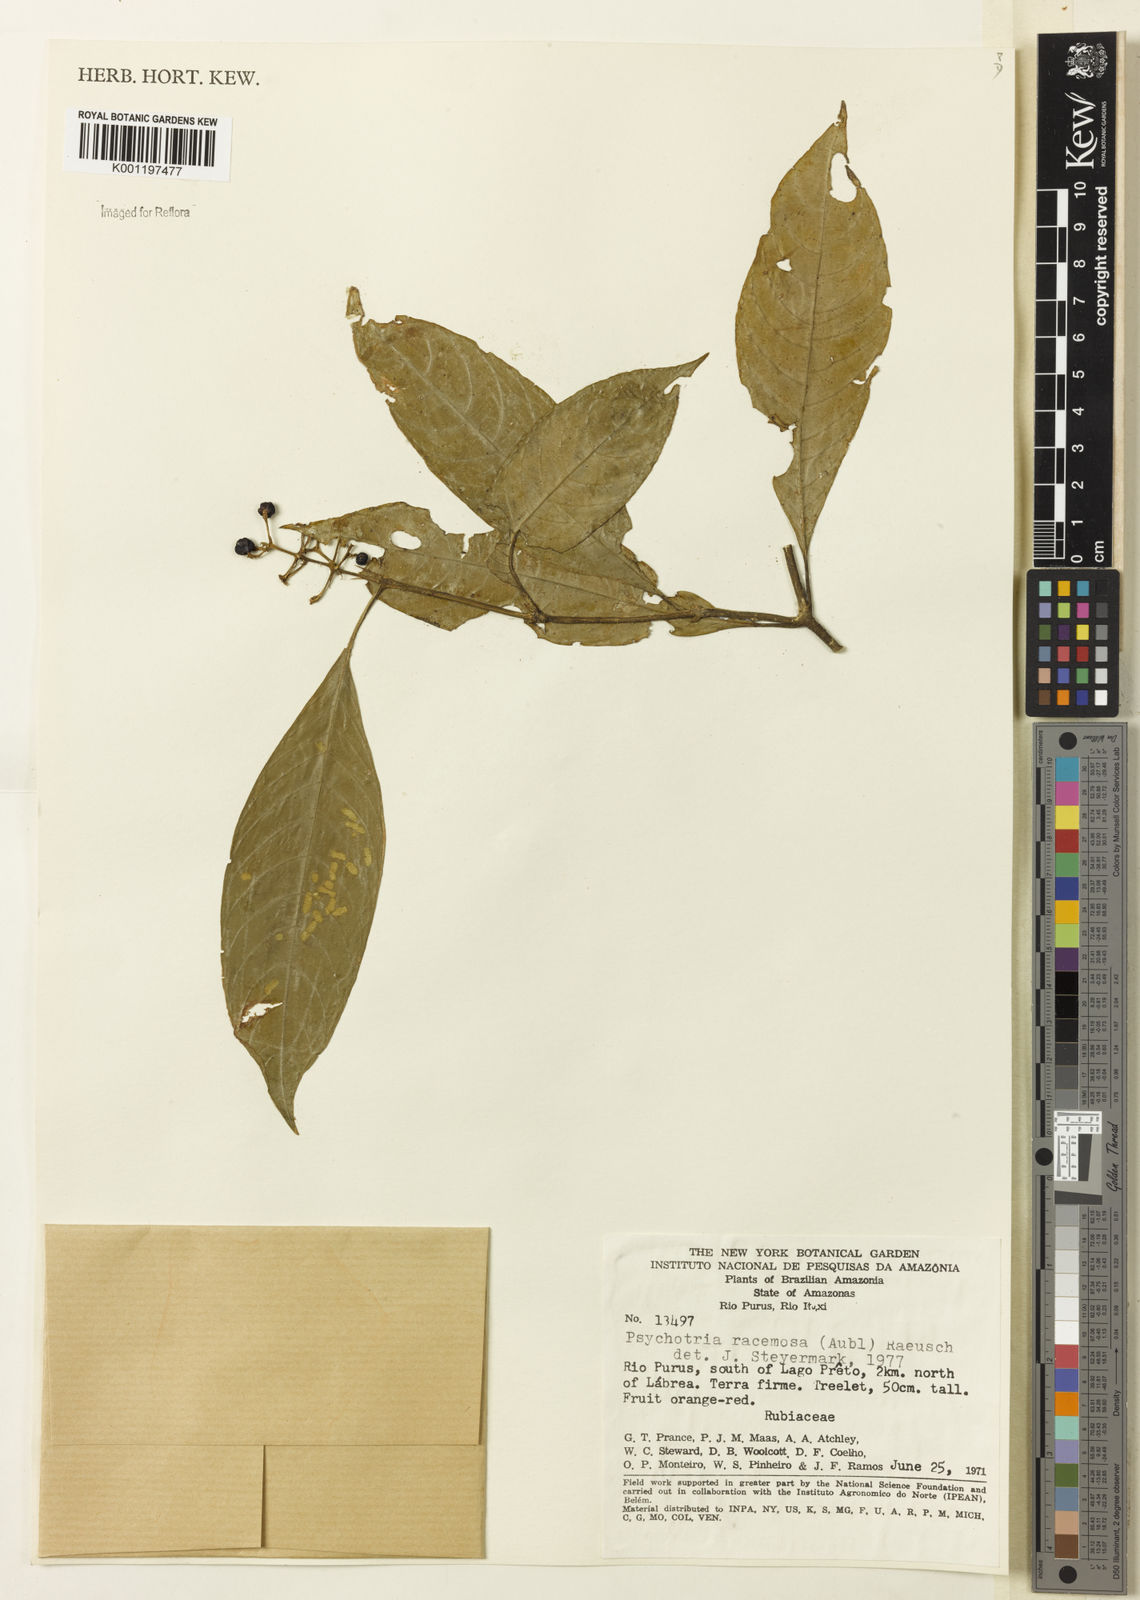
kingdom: Plantae
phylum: Tracheophyta
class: Magnoliopsida
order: Gentianales
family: Rubiaceae
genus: Palicourea
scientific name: Palicourea racemosa
